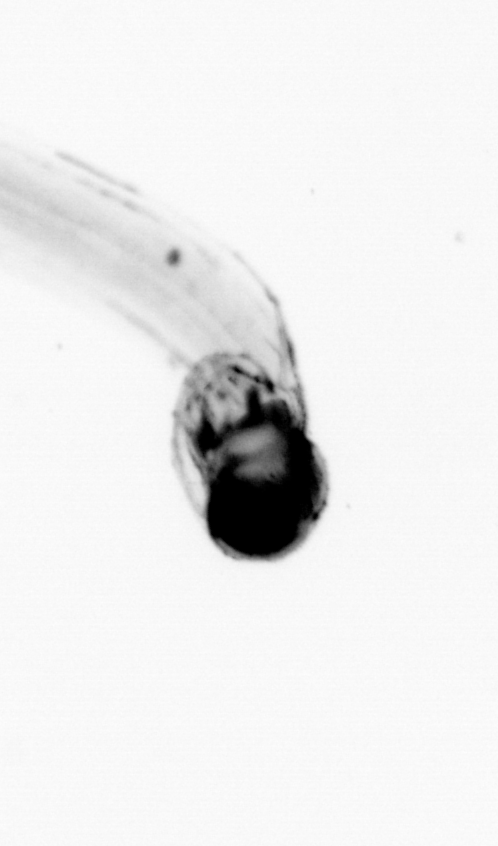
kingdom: Animalia
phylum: Chordata
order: Copelata
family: Fritillariidae
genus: Appendicularia
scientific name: Appendicularia
